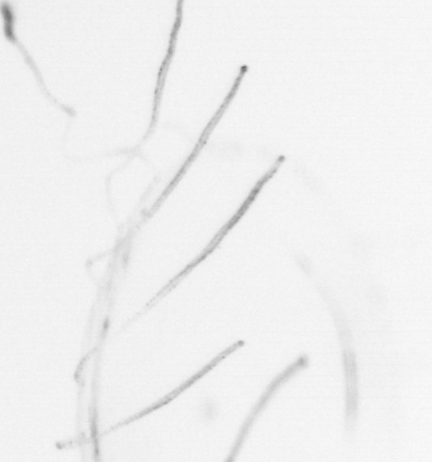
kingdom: Animalia
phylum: Chordata
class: Thaliacea
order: Salpida
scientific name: Salpida
